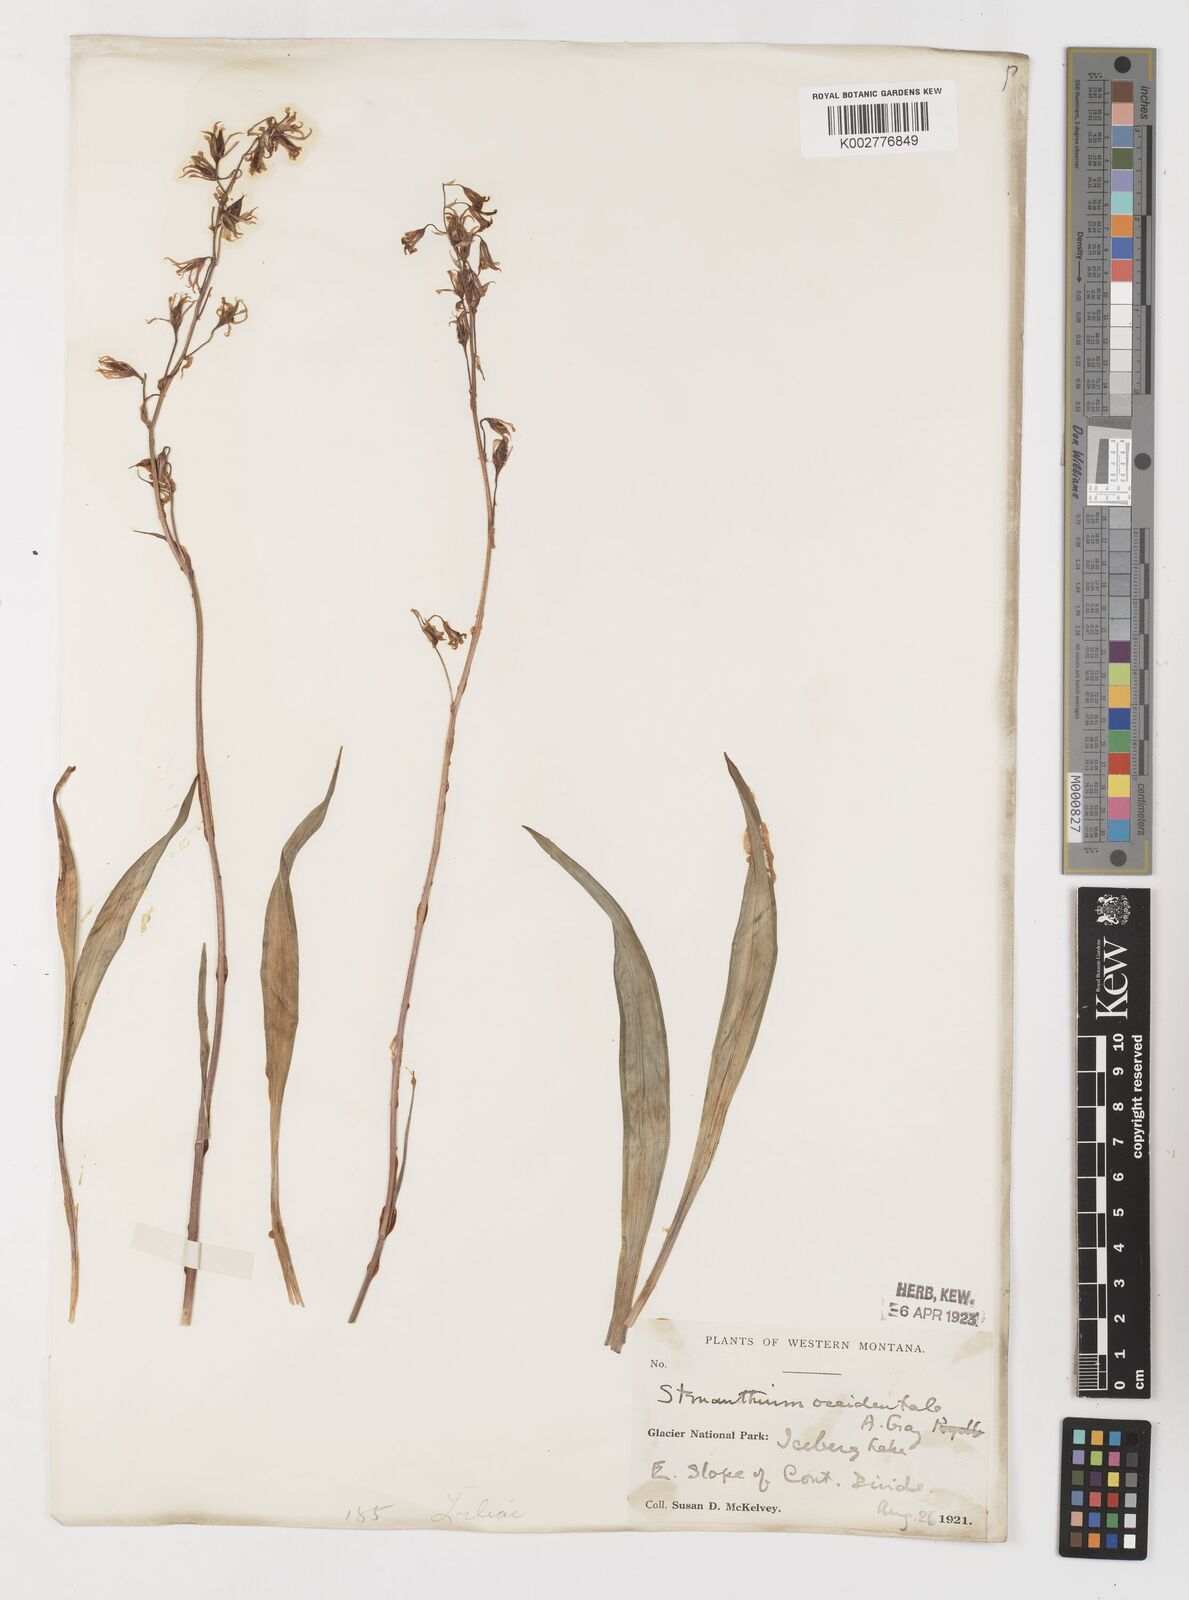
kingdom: Plantae
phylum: Tracheophyta
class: Liliopsida
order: Liliales
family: Melanthiaceae
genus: Anticlea
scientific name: Anticlea occidentalis
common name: Bronze-bells
